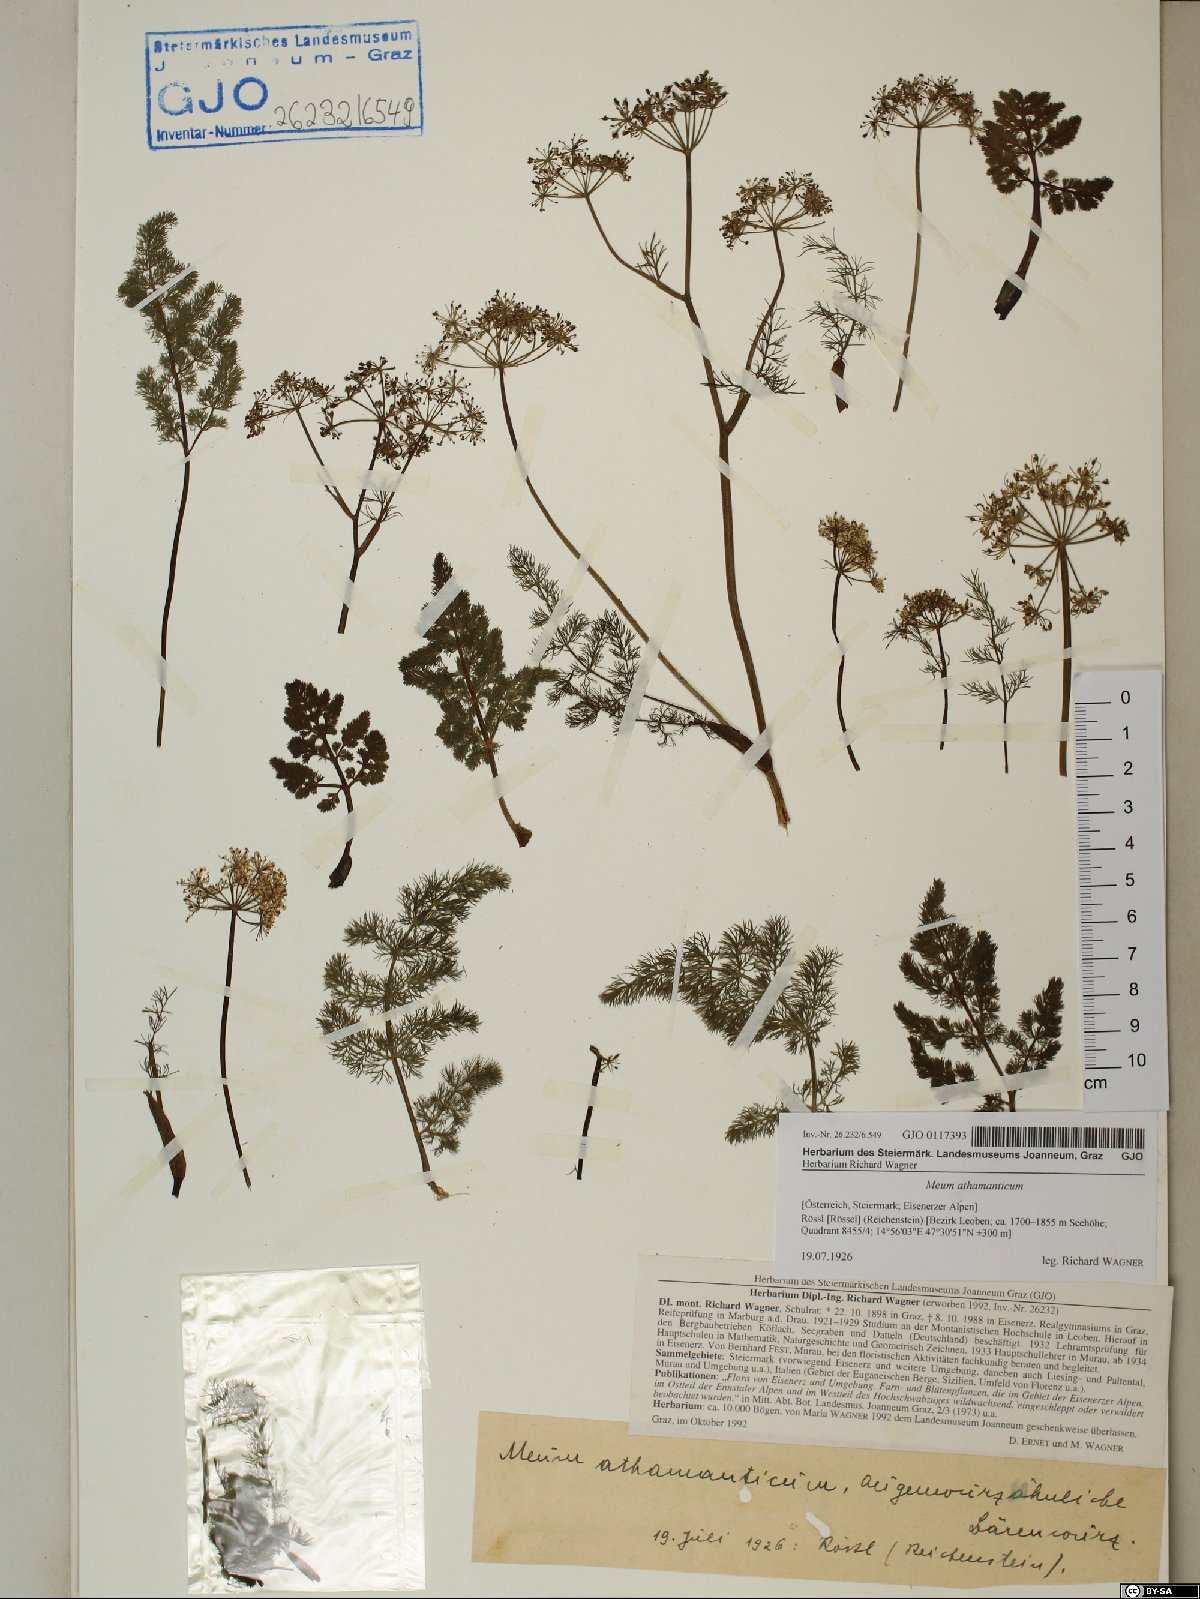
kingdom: Plantae
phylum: Tracheophyta
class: Magnoliopsida
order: Apiales
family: Apiaceae
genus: Meum
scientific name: Meum athamanticum
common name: Spignel
